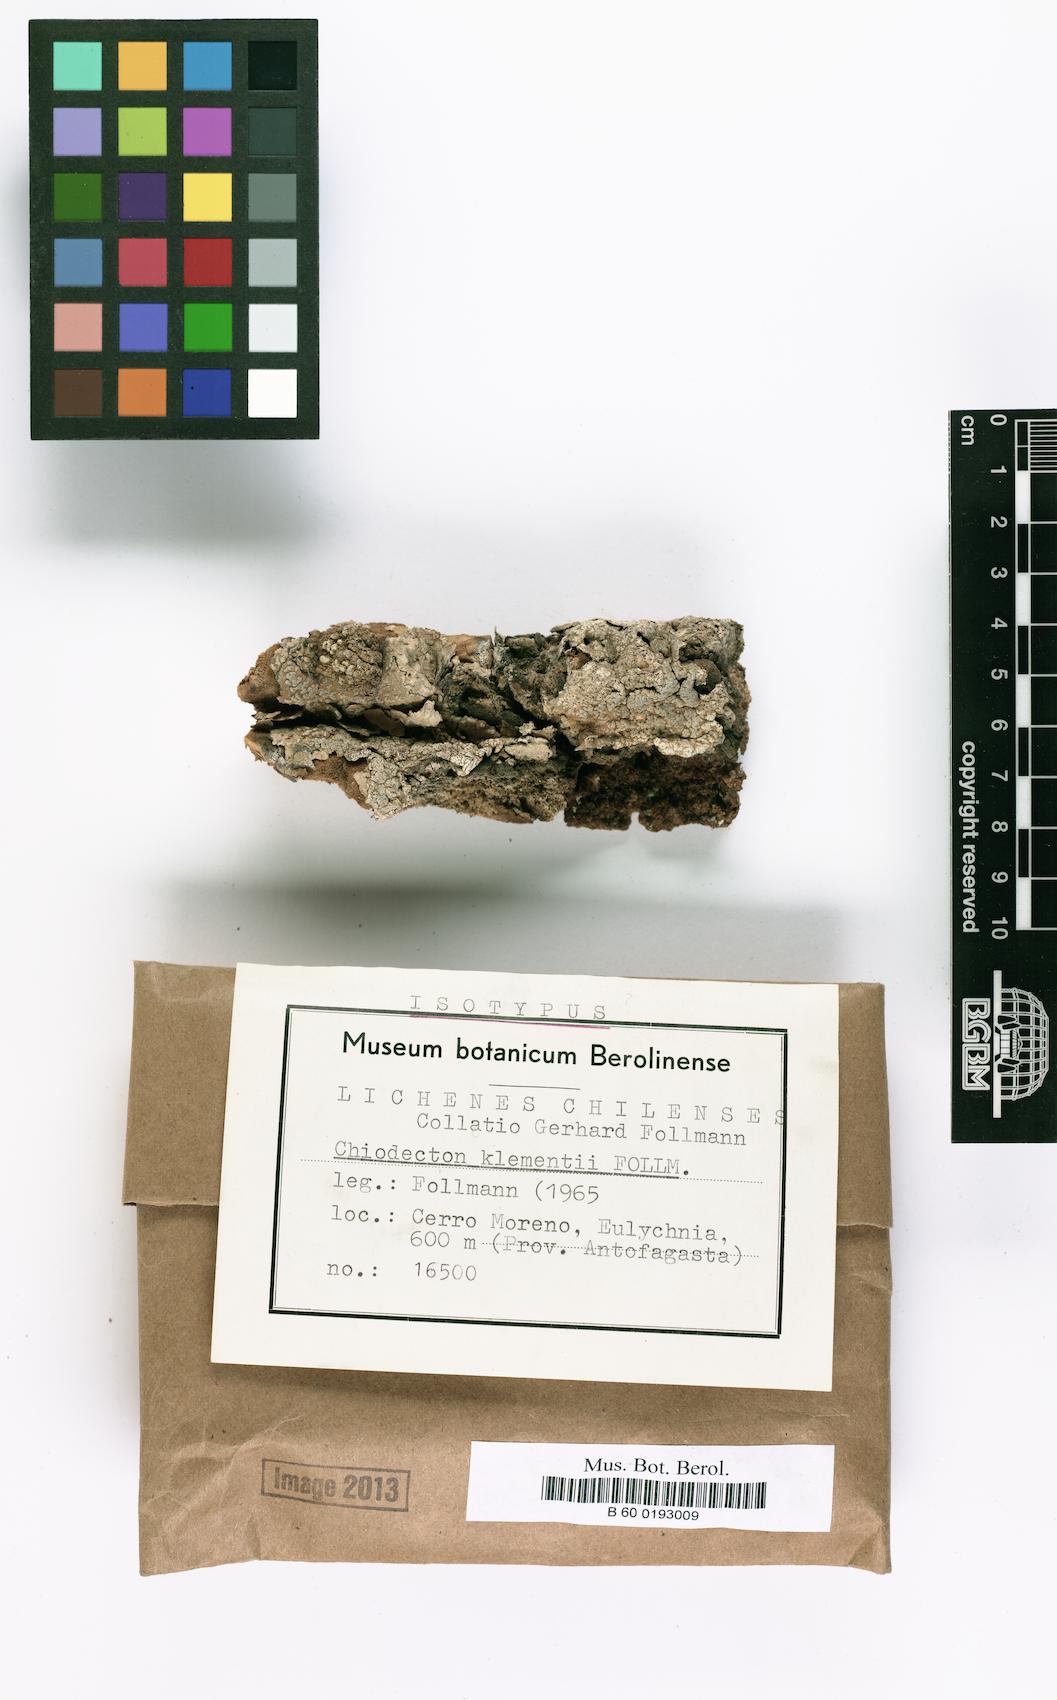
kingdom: Fungi
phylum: Ascomycota
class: Arthoniomycetes
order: Arthoniales
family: Roccellographaceae
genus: Fulvophyton
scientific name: Fulvophyton klementii
